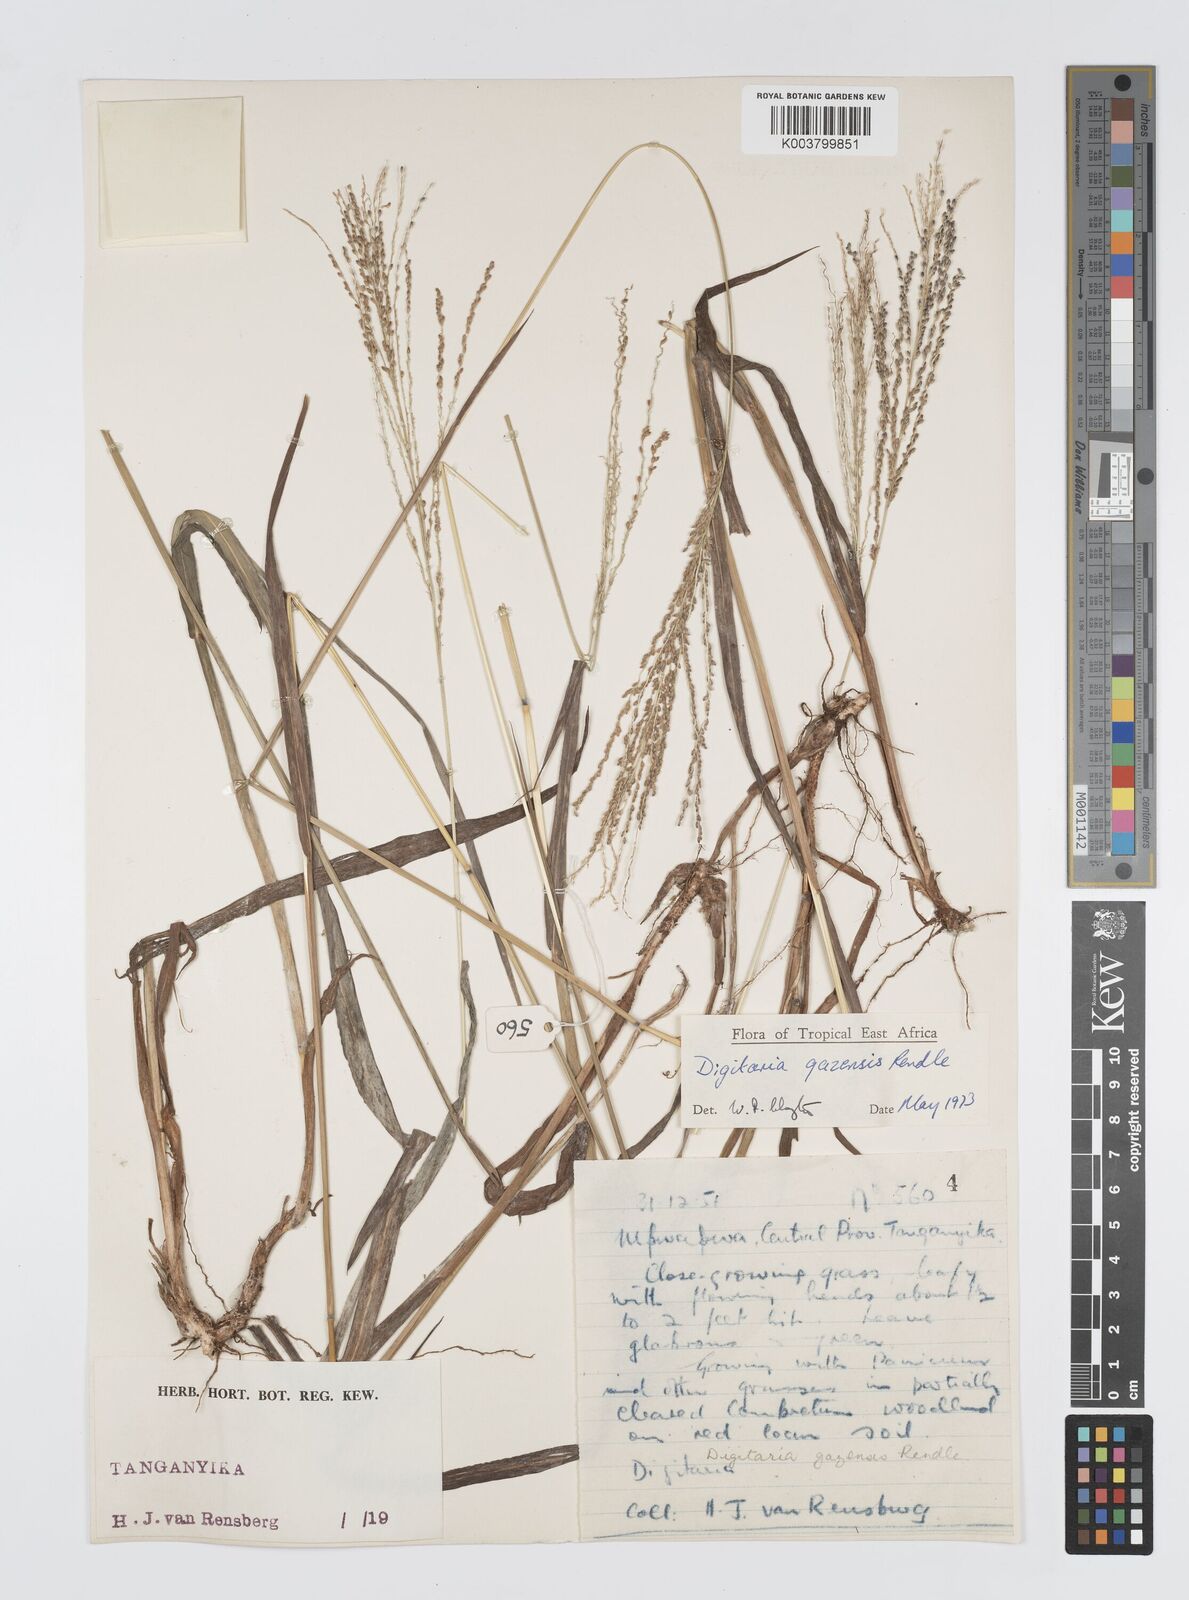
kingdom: Plantae
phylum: Tracheophyta
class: Liliopsida
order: Poales
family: Poaceae
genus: Digitaria
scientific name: Digitaria gazensis
